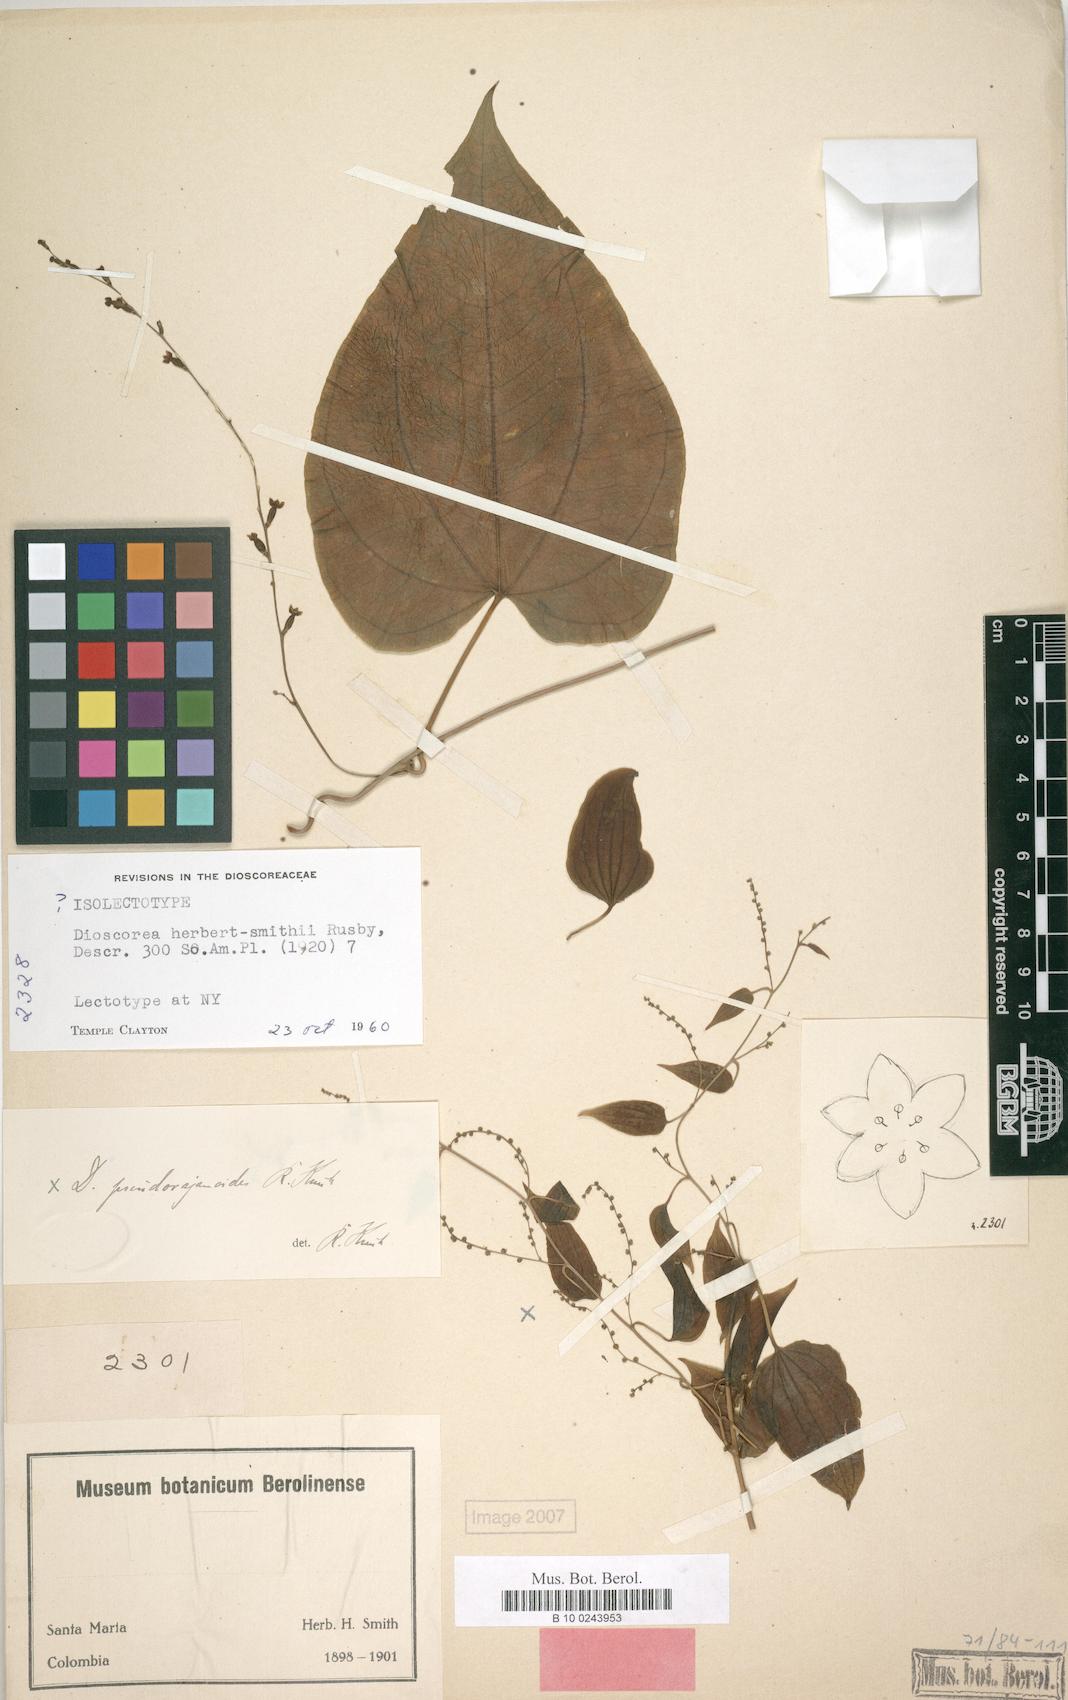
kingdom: Plantae
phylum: Tracheophyta
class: Liliopsida
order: Dioscoreales
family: Dioscoreaceae
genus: Dioscorea
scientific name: Dioscorea herbert-smithii
